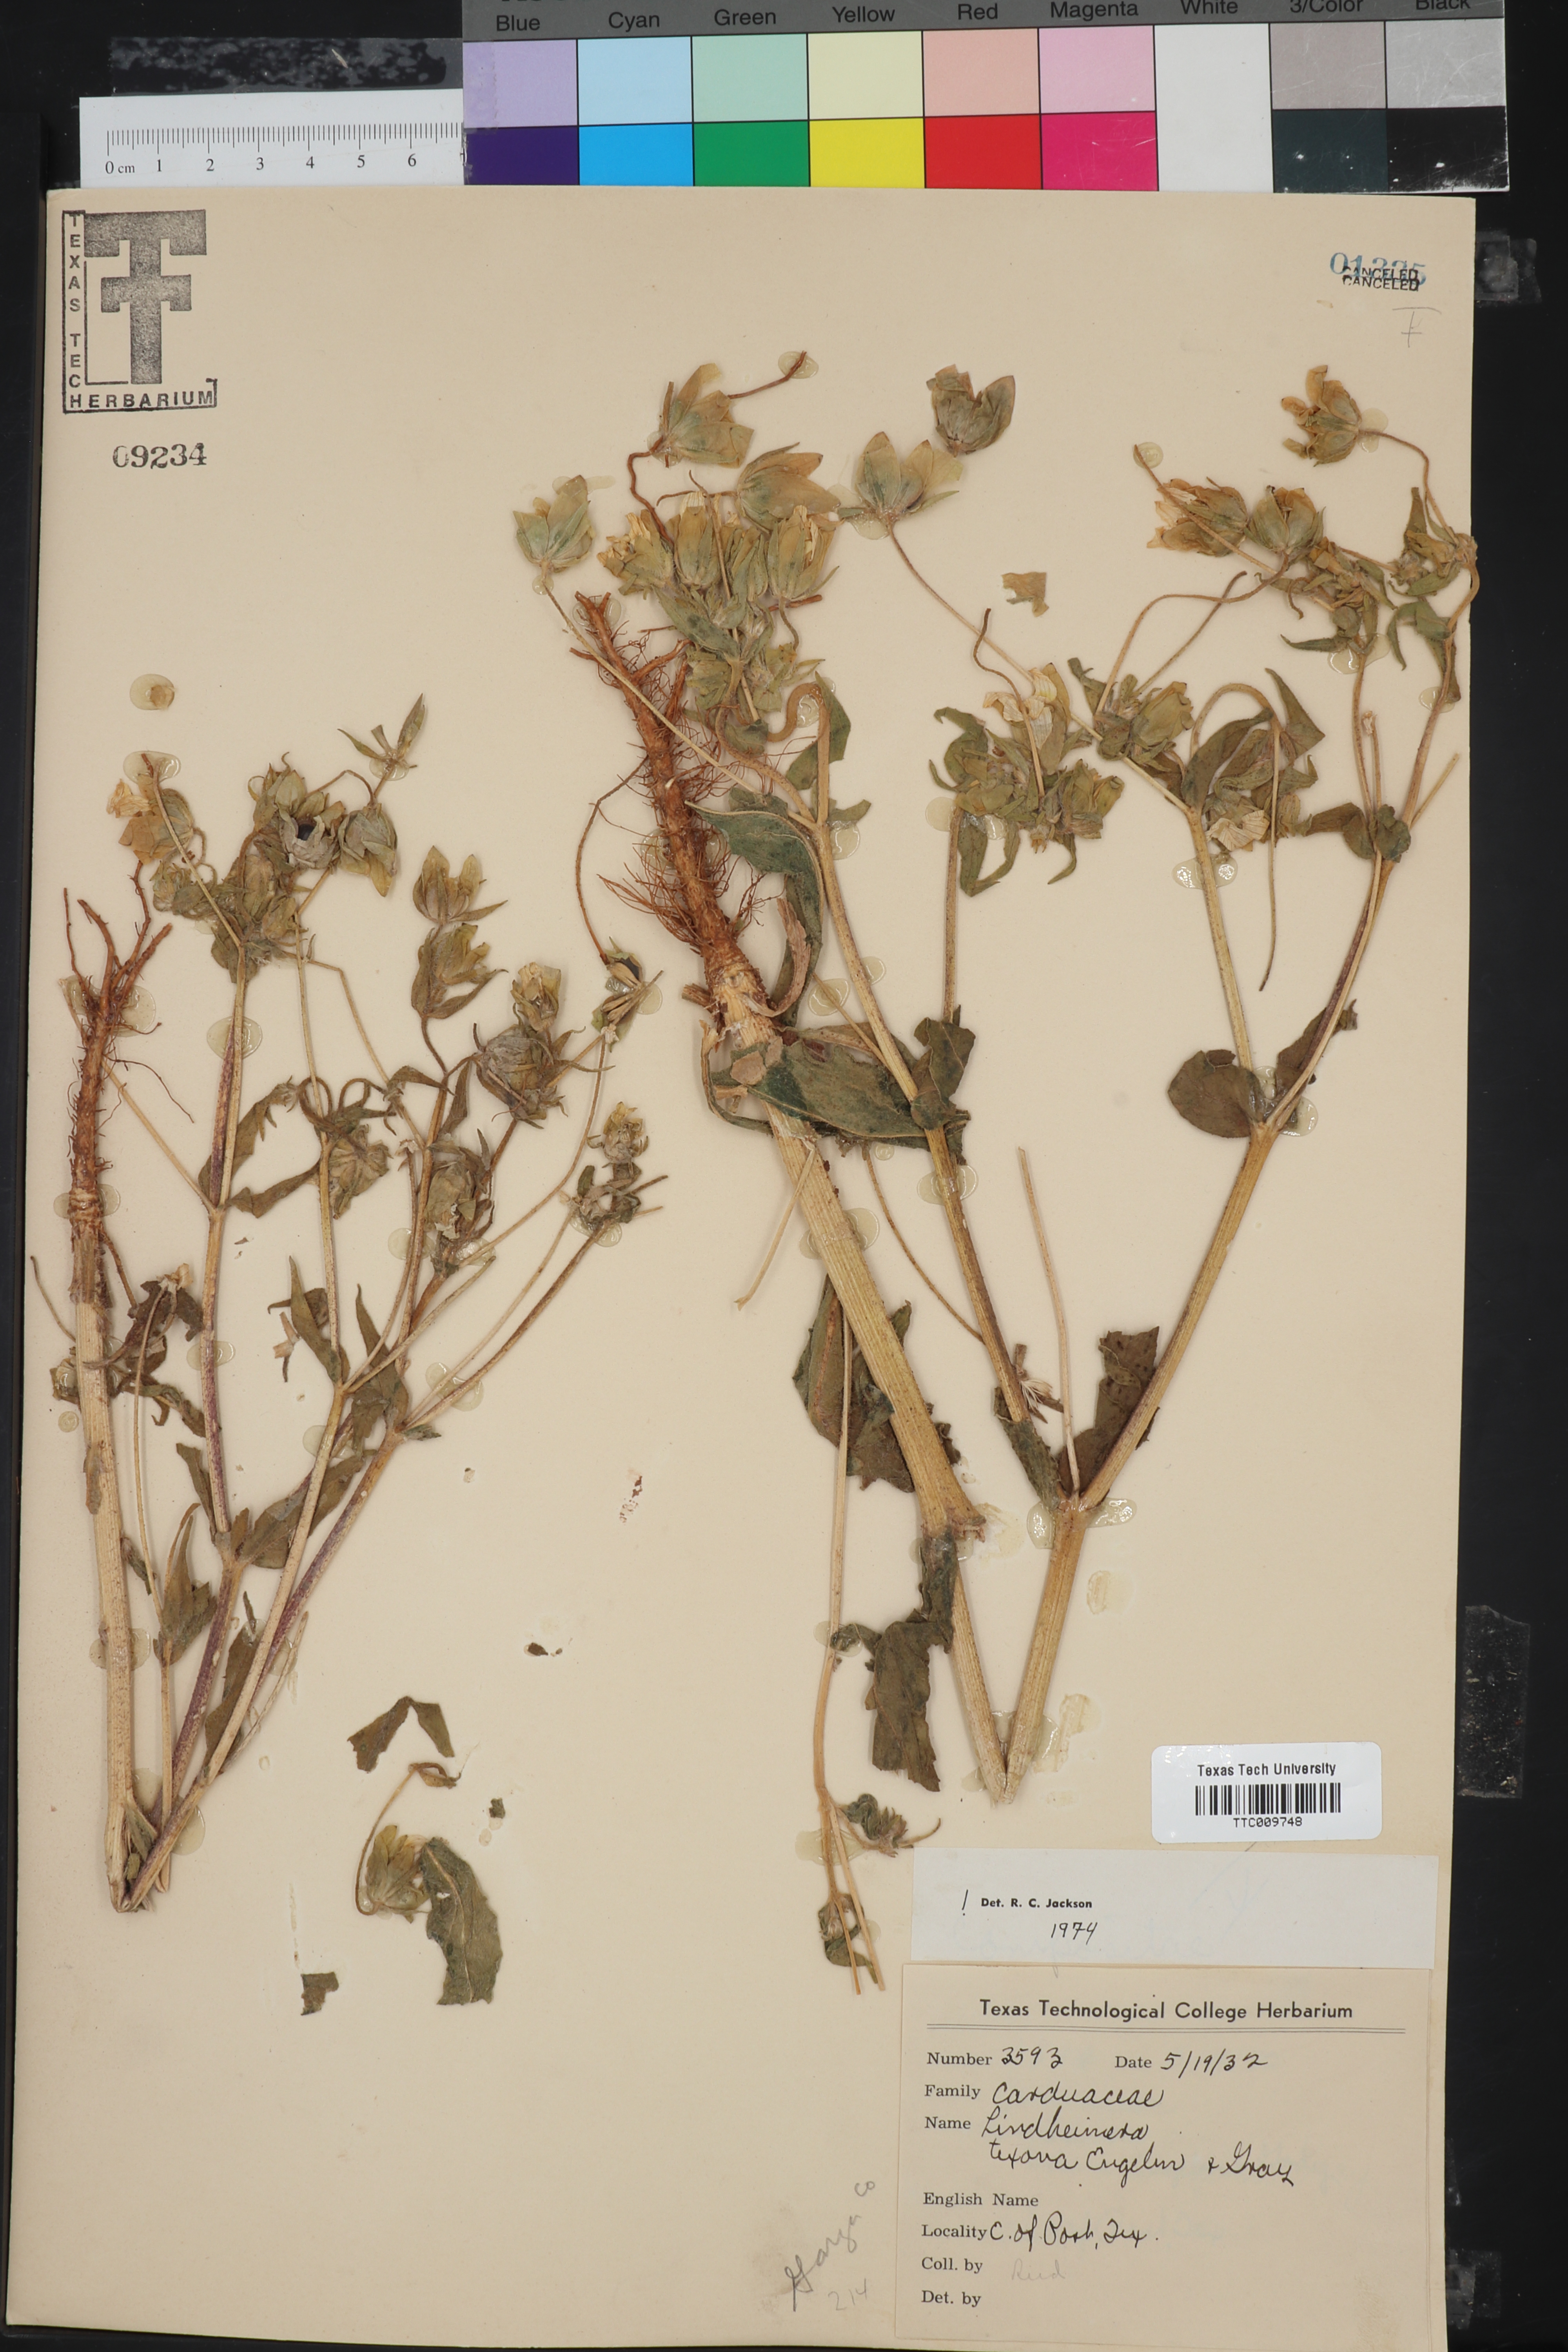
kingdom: Plantae
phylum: Tracheophyta
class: Magnoliopsida
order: Asterales
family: Asteraceae
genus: Lindheimera
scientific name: Lindheimera texana
